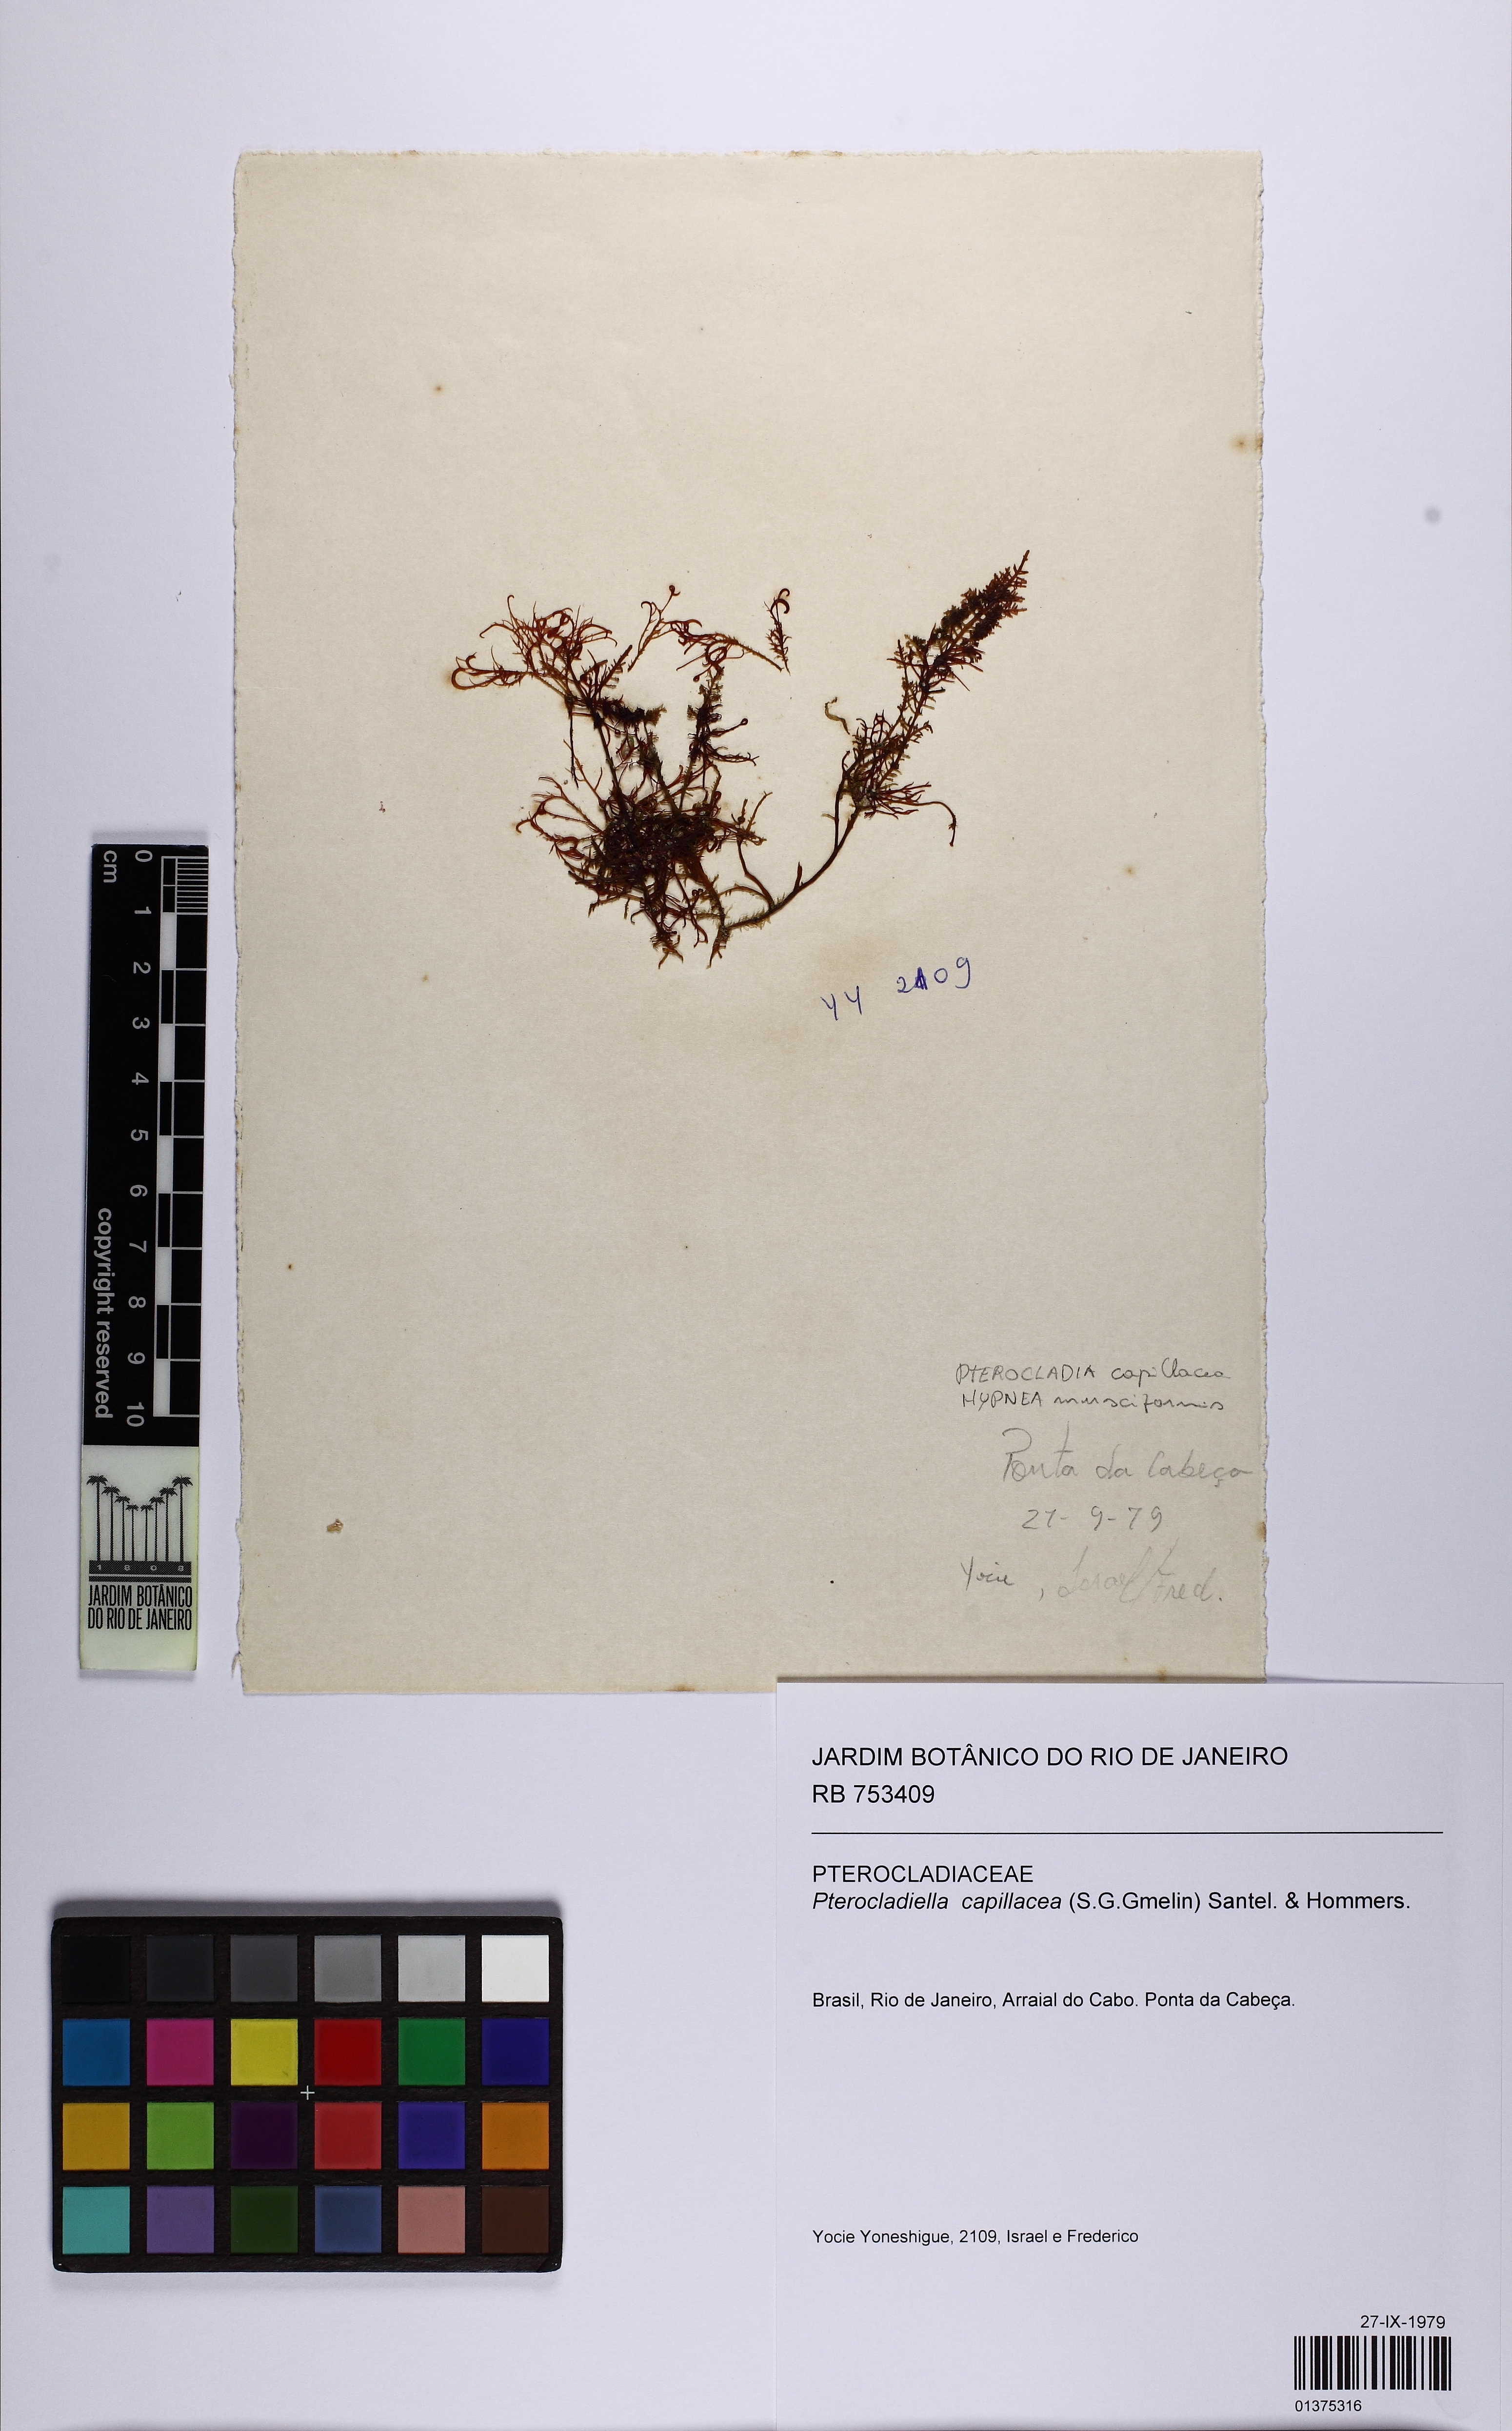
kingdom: Plantae
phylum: Rhodophyta
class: Florideophyceae
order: Gelidiales
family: Pterocladiaceae
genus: Pterocladiella
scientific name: Pterocladiella capillacea
